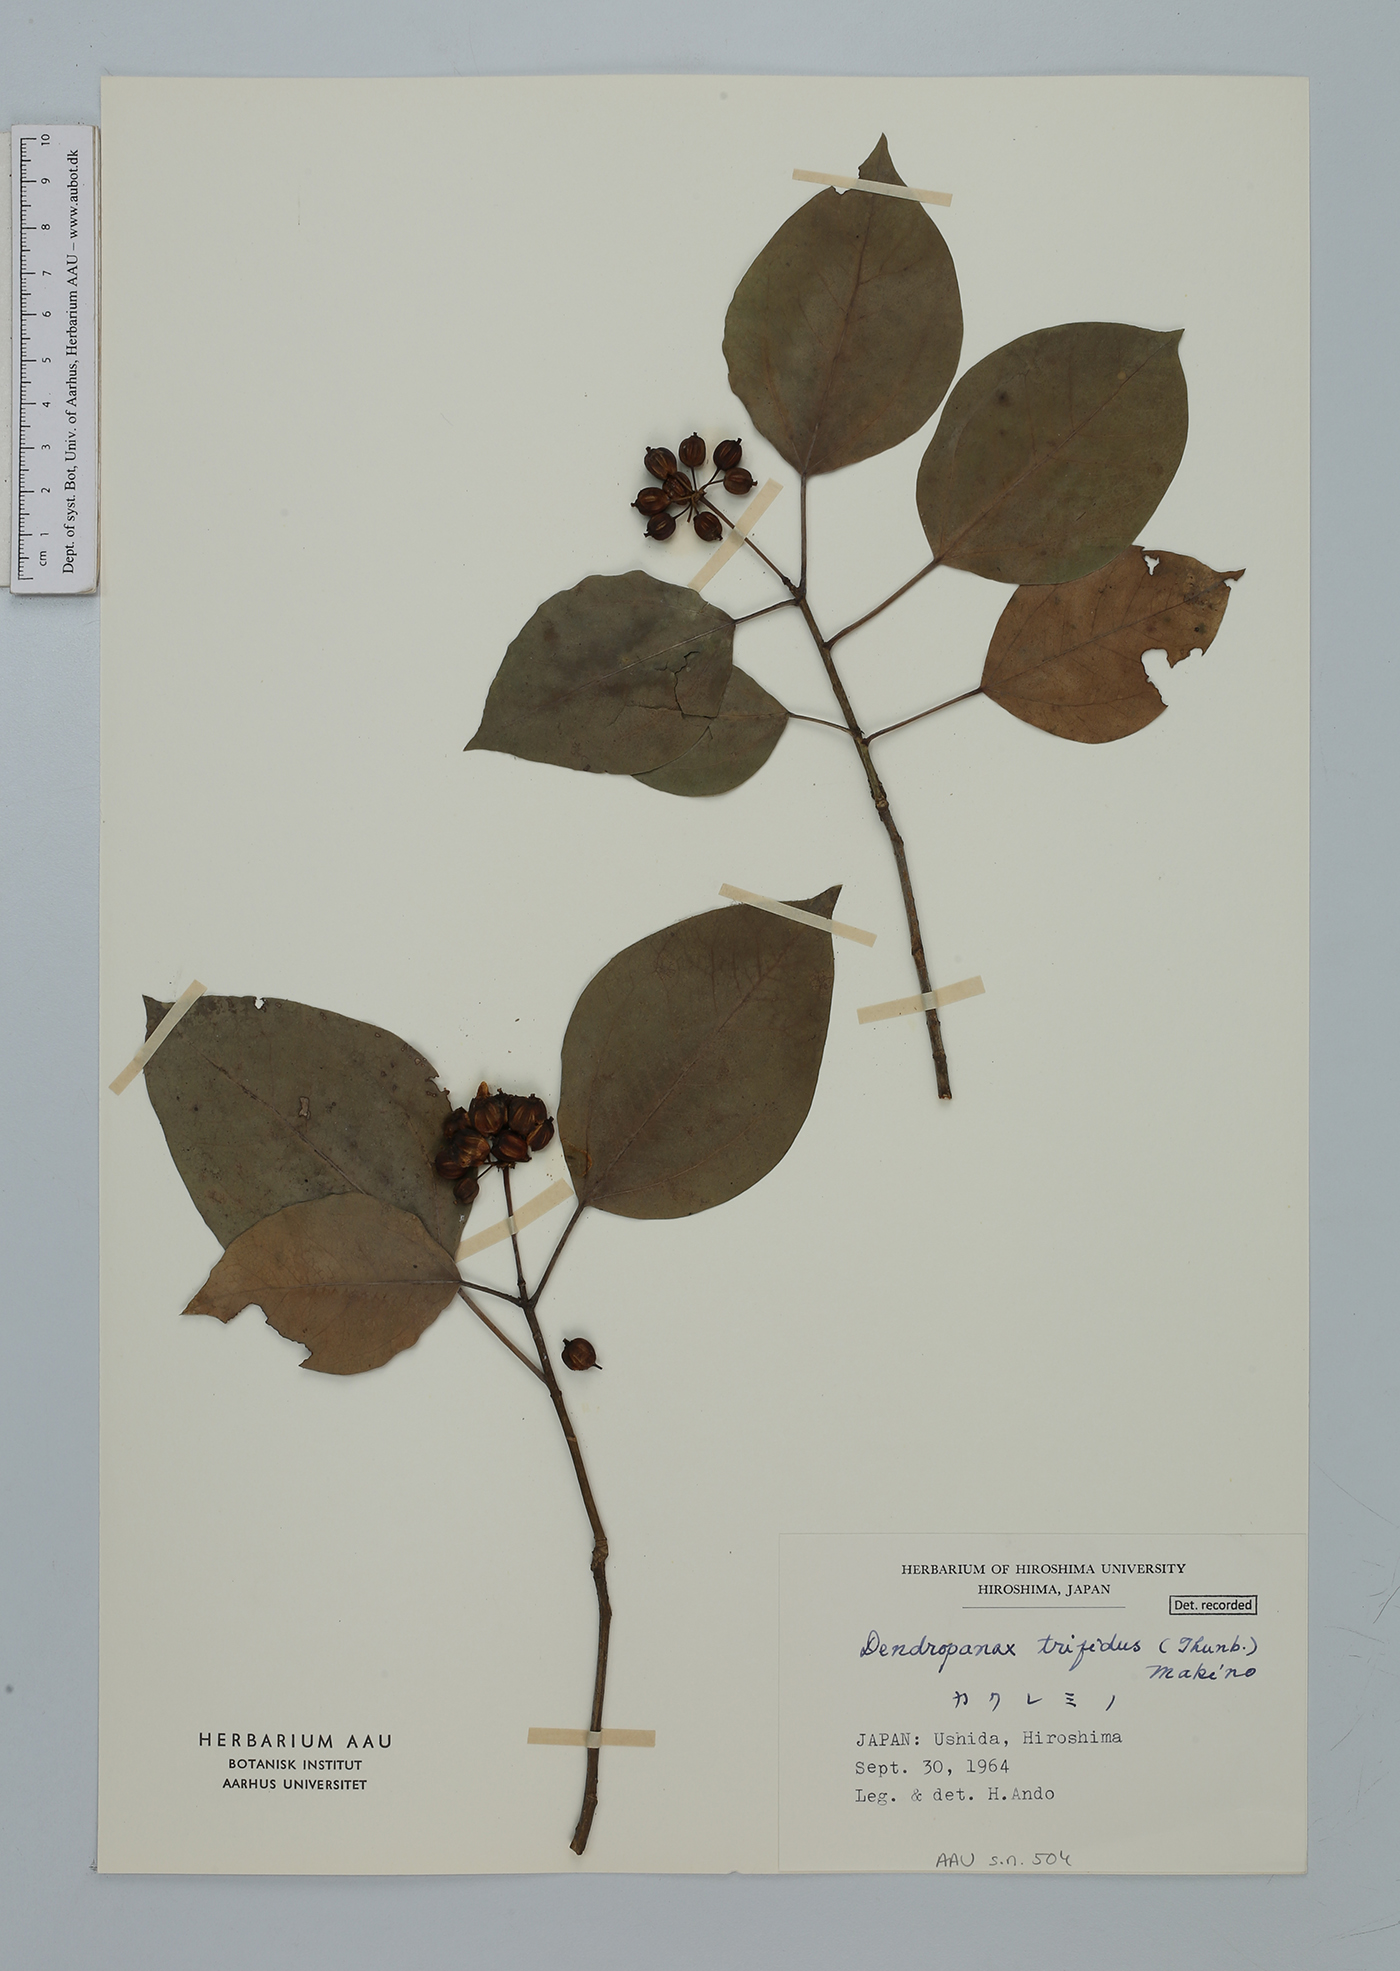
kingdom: Plantae
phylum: Tracheophyta
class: Magnoliopsida
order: Apiales
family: Araliaceae
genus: Dendropanax
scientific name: Dendropanax trifidus
